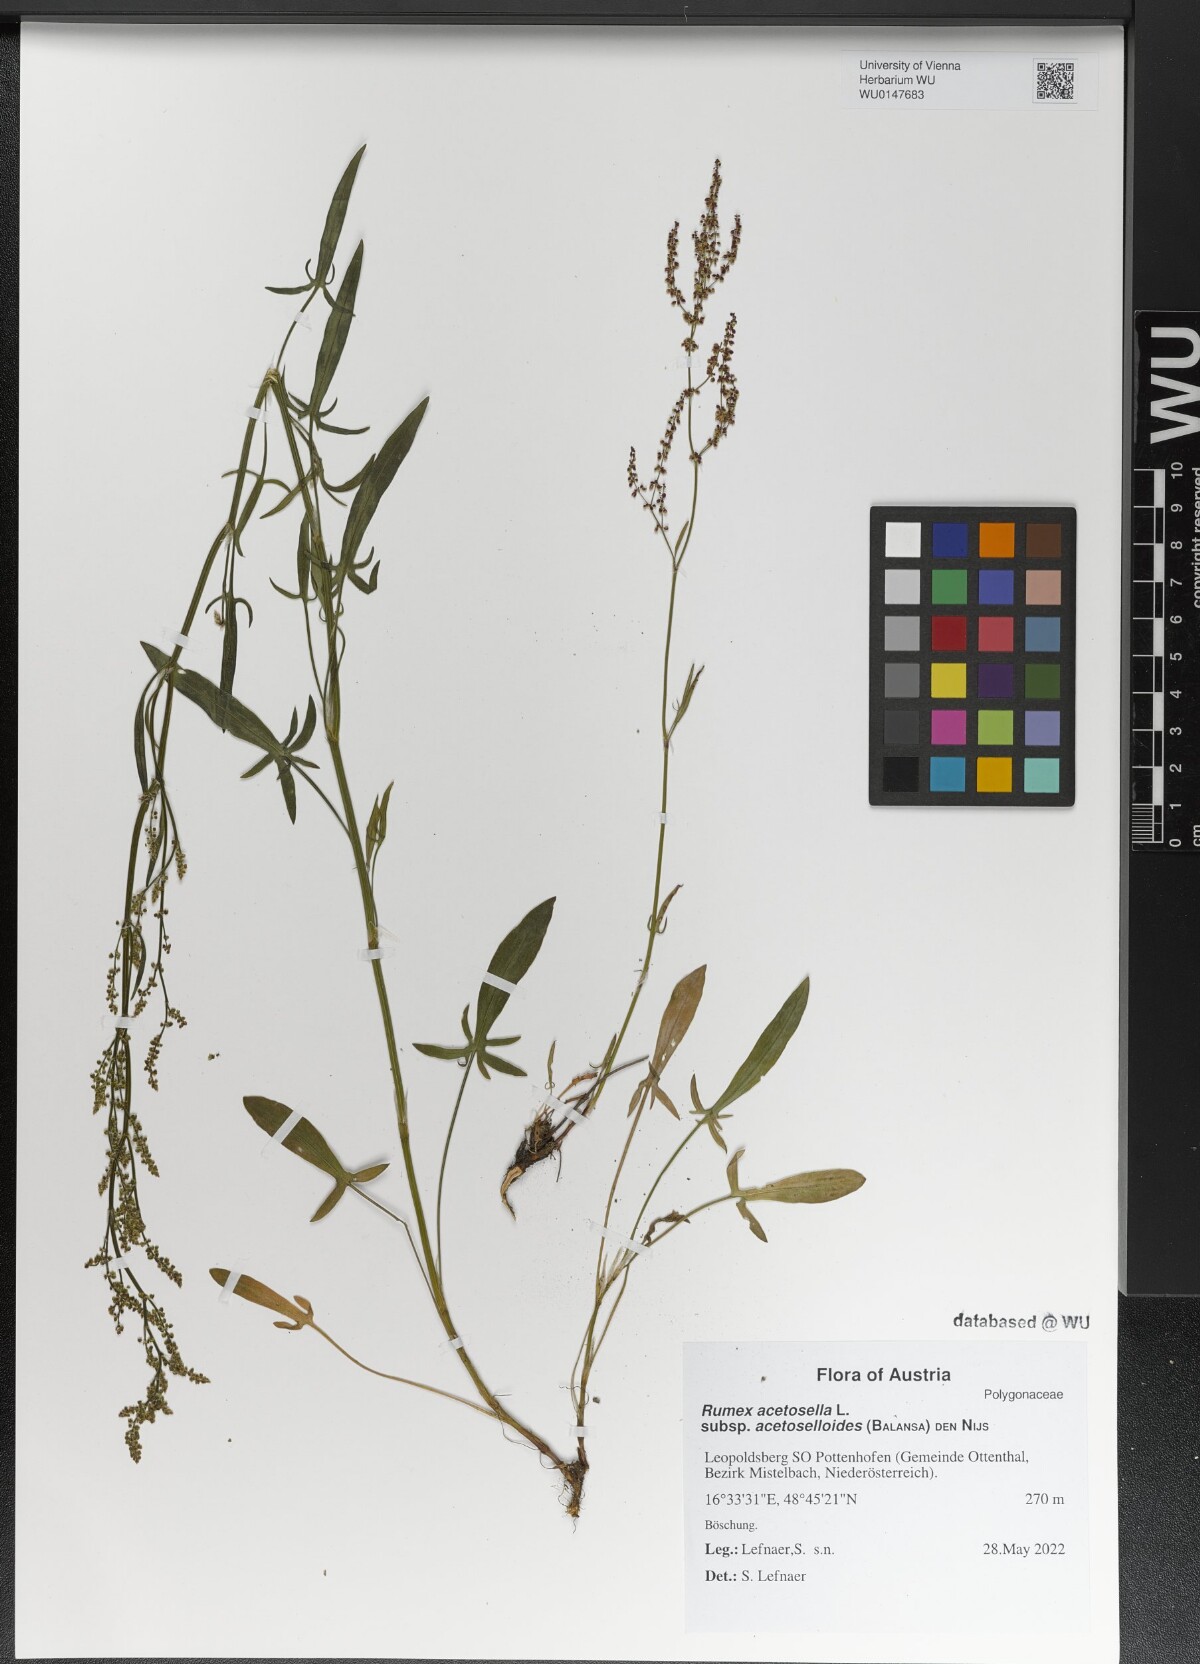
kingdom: Plantae
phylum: Tracheophyta
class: Magnoliopsida
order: Caryophyllales
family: Polygonaceae
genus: Rumex
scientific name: Rumex acetosella
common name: Common sheep sorrel
